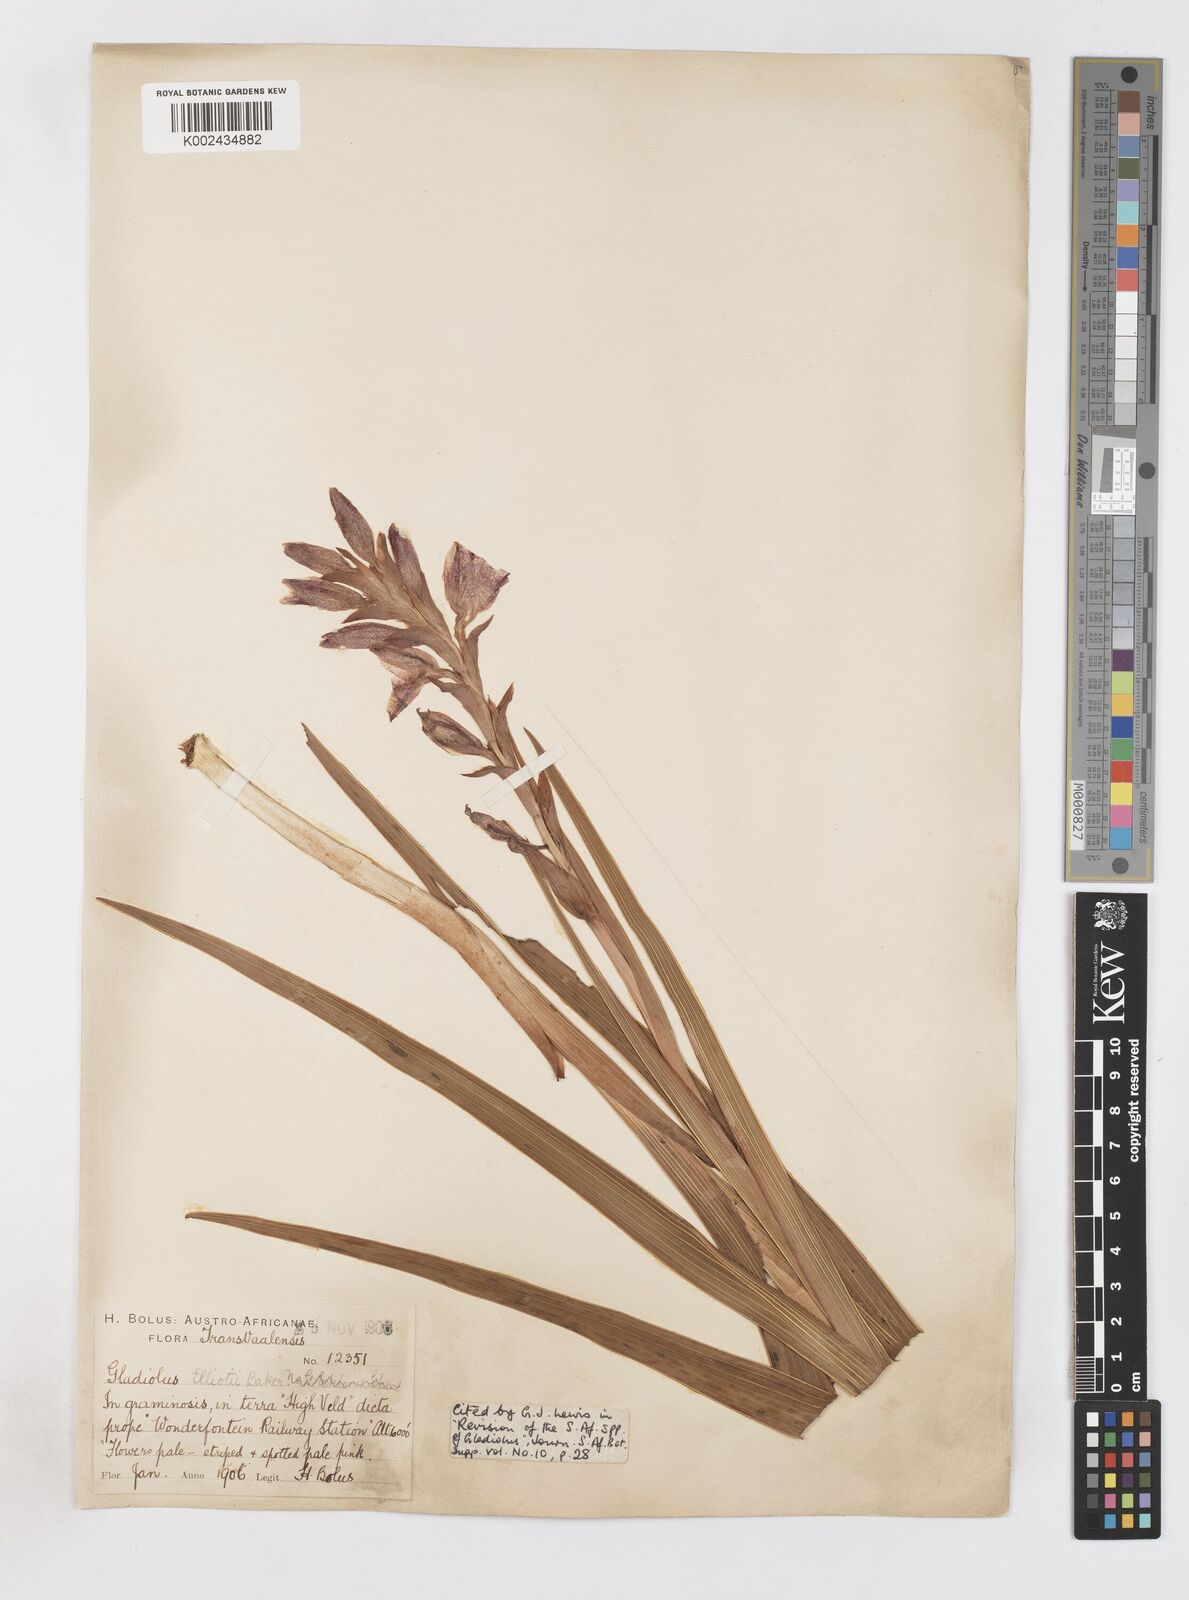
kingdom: Plantae
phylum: Tracheophyta
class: Liliopsida
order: Asparagales
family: Iridaceae
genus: Gladiolus
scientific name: Gladiolus elliotii
